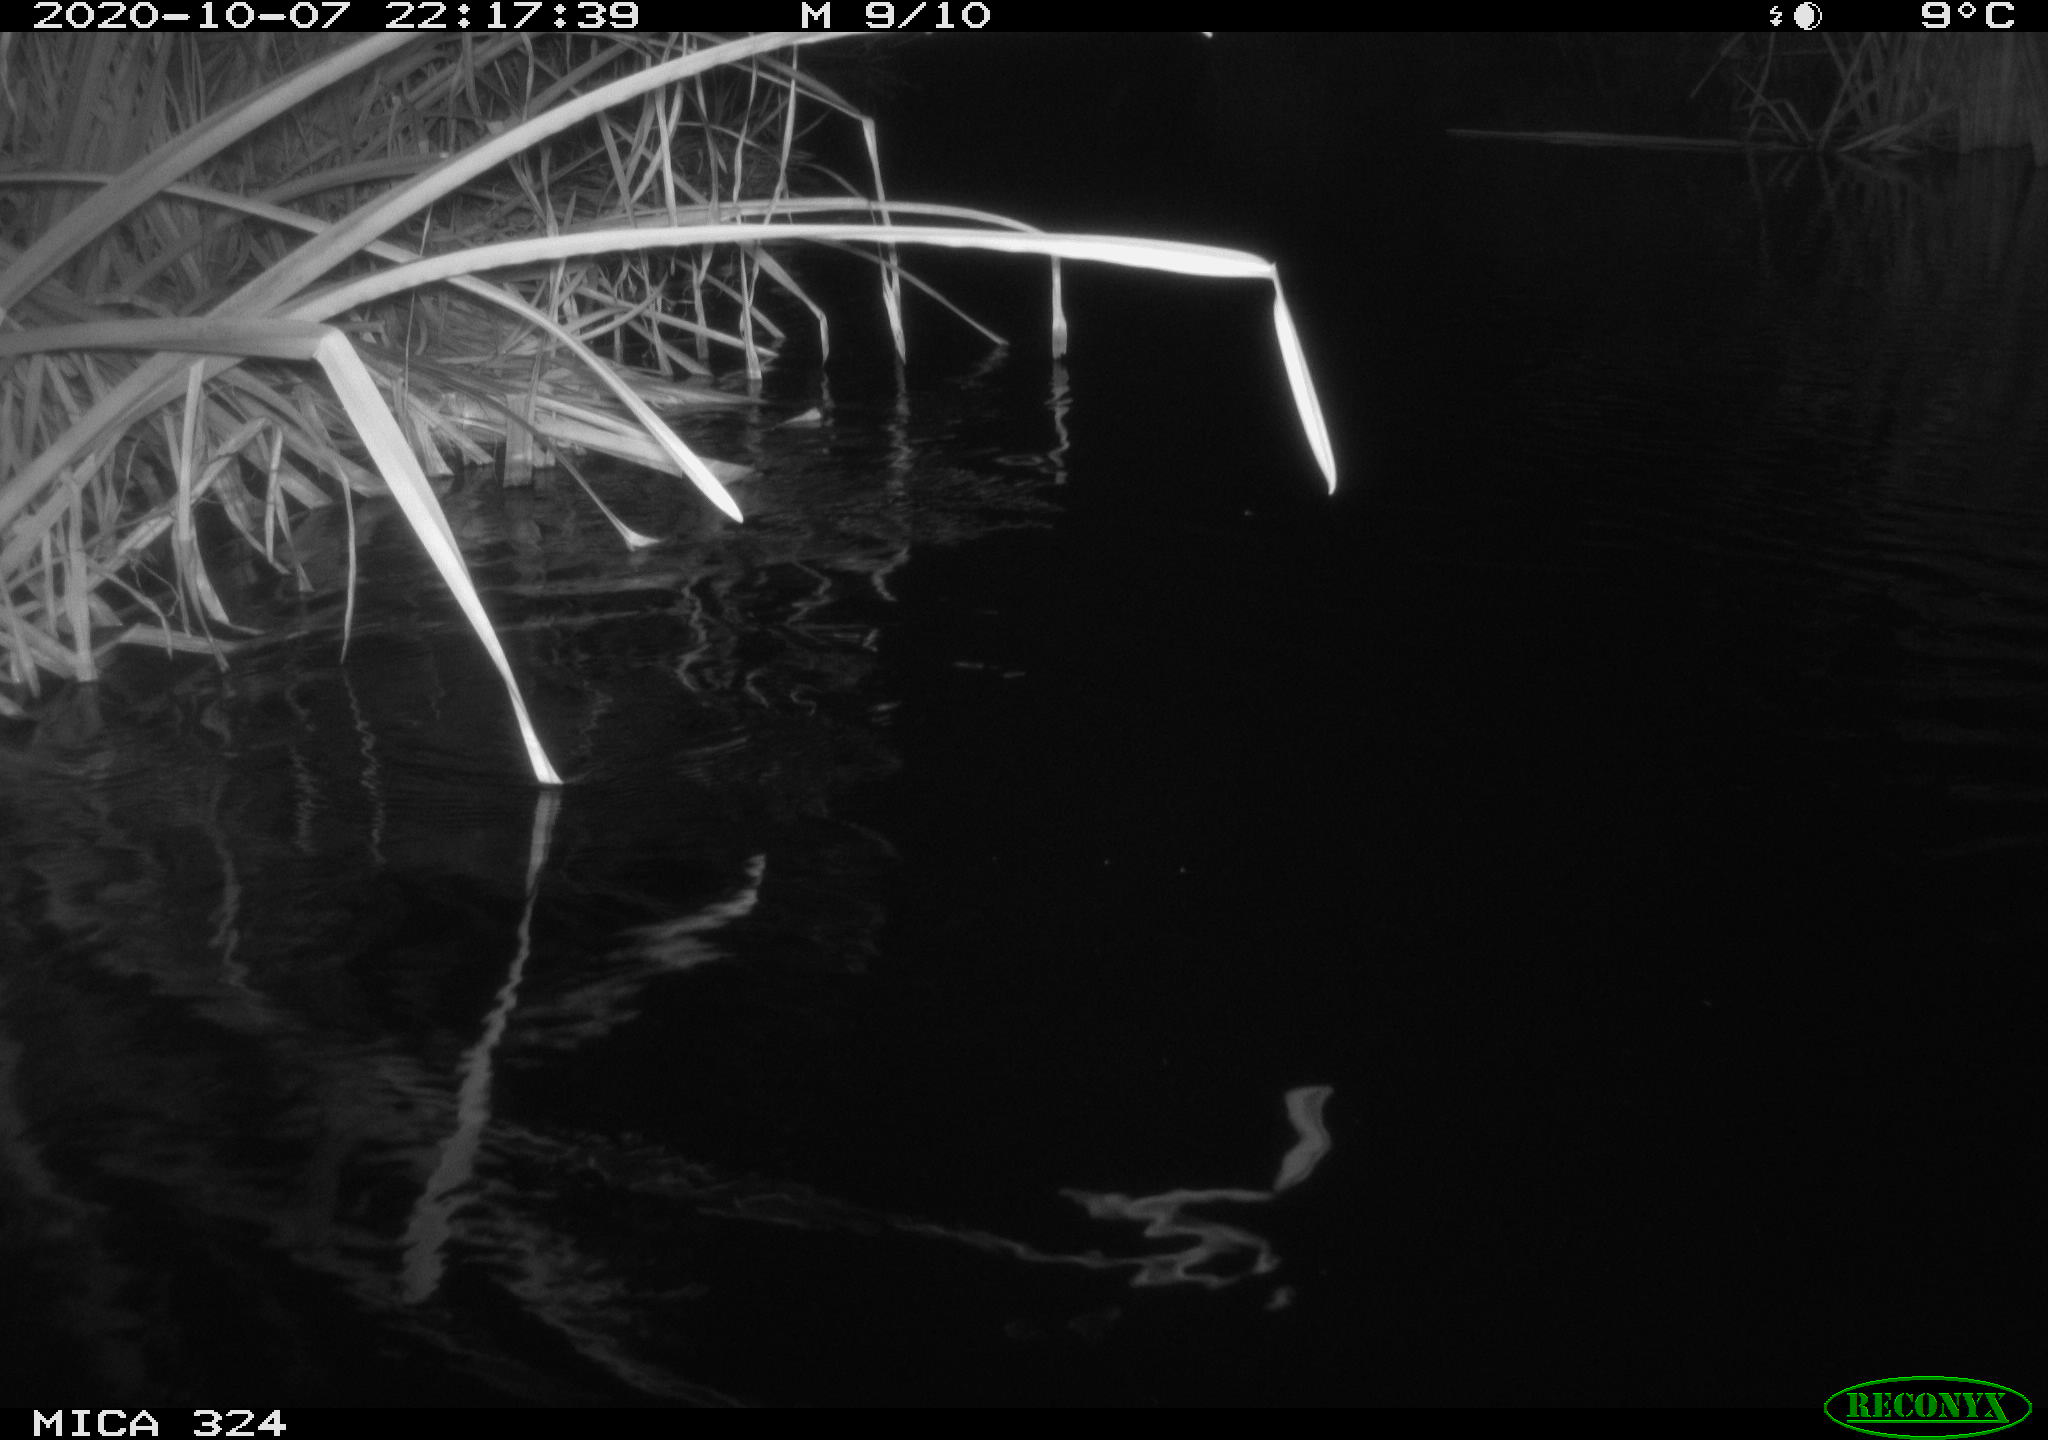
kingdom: Animalia
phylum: Chordata
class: Mammalia
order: Rodentia
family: Cricetidae
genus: Ondatra
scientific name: Ondatra zibethicus
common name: Muskrat
